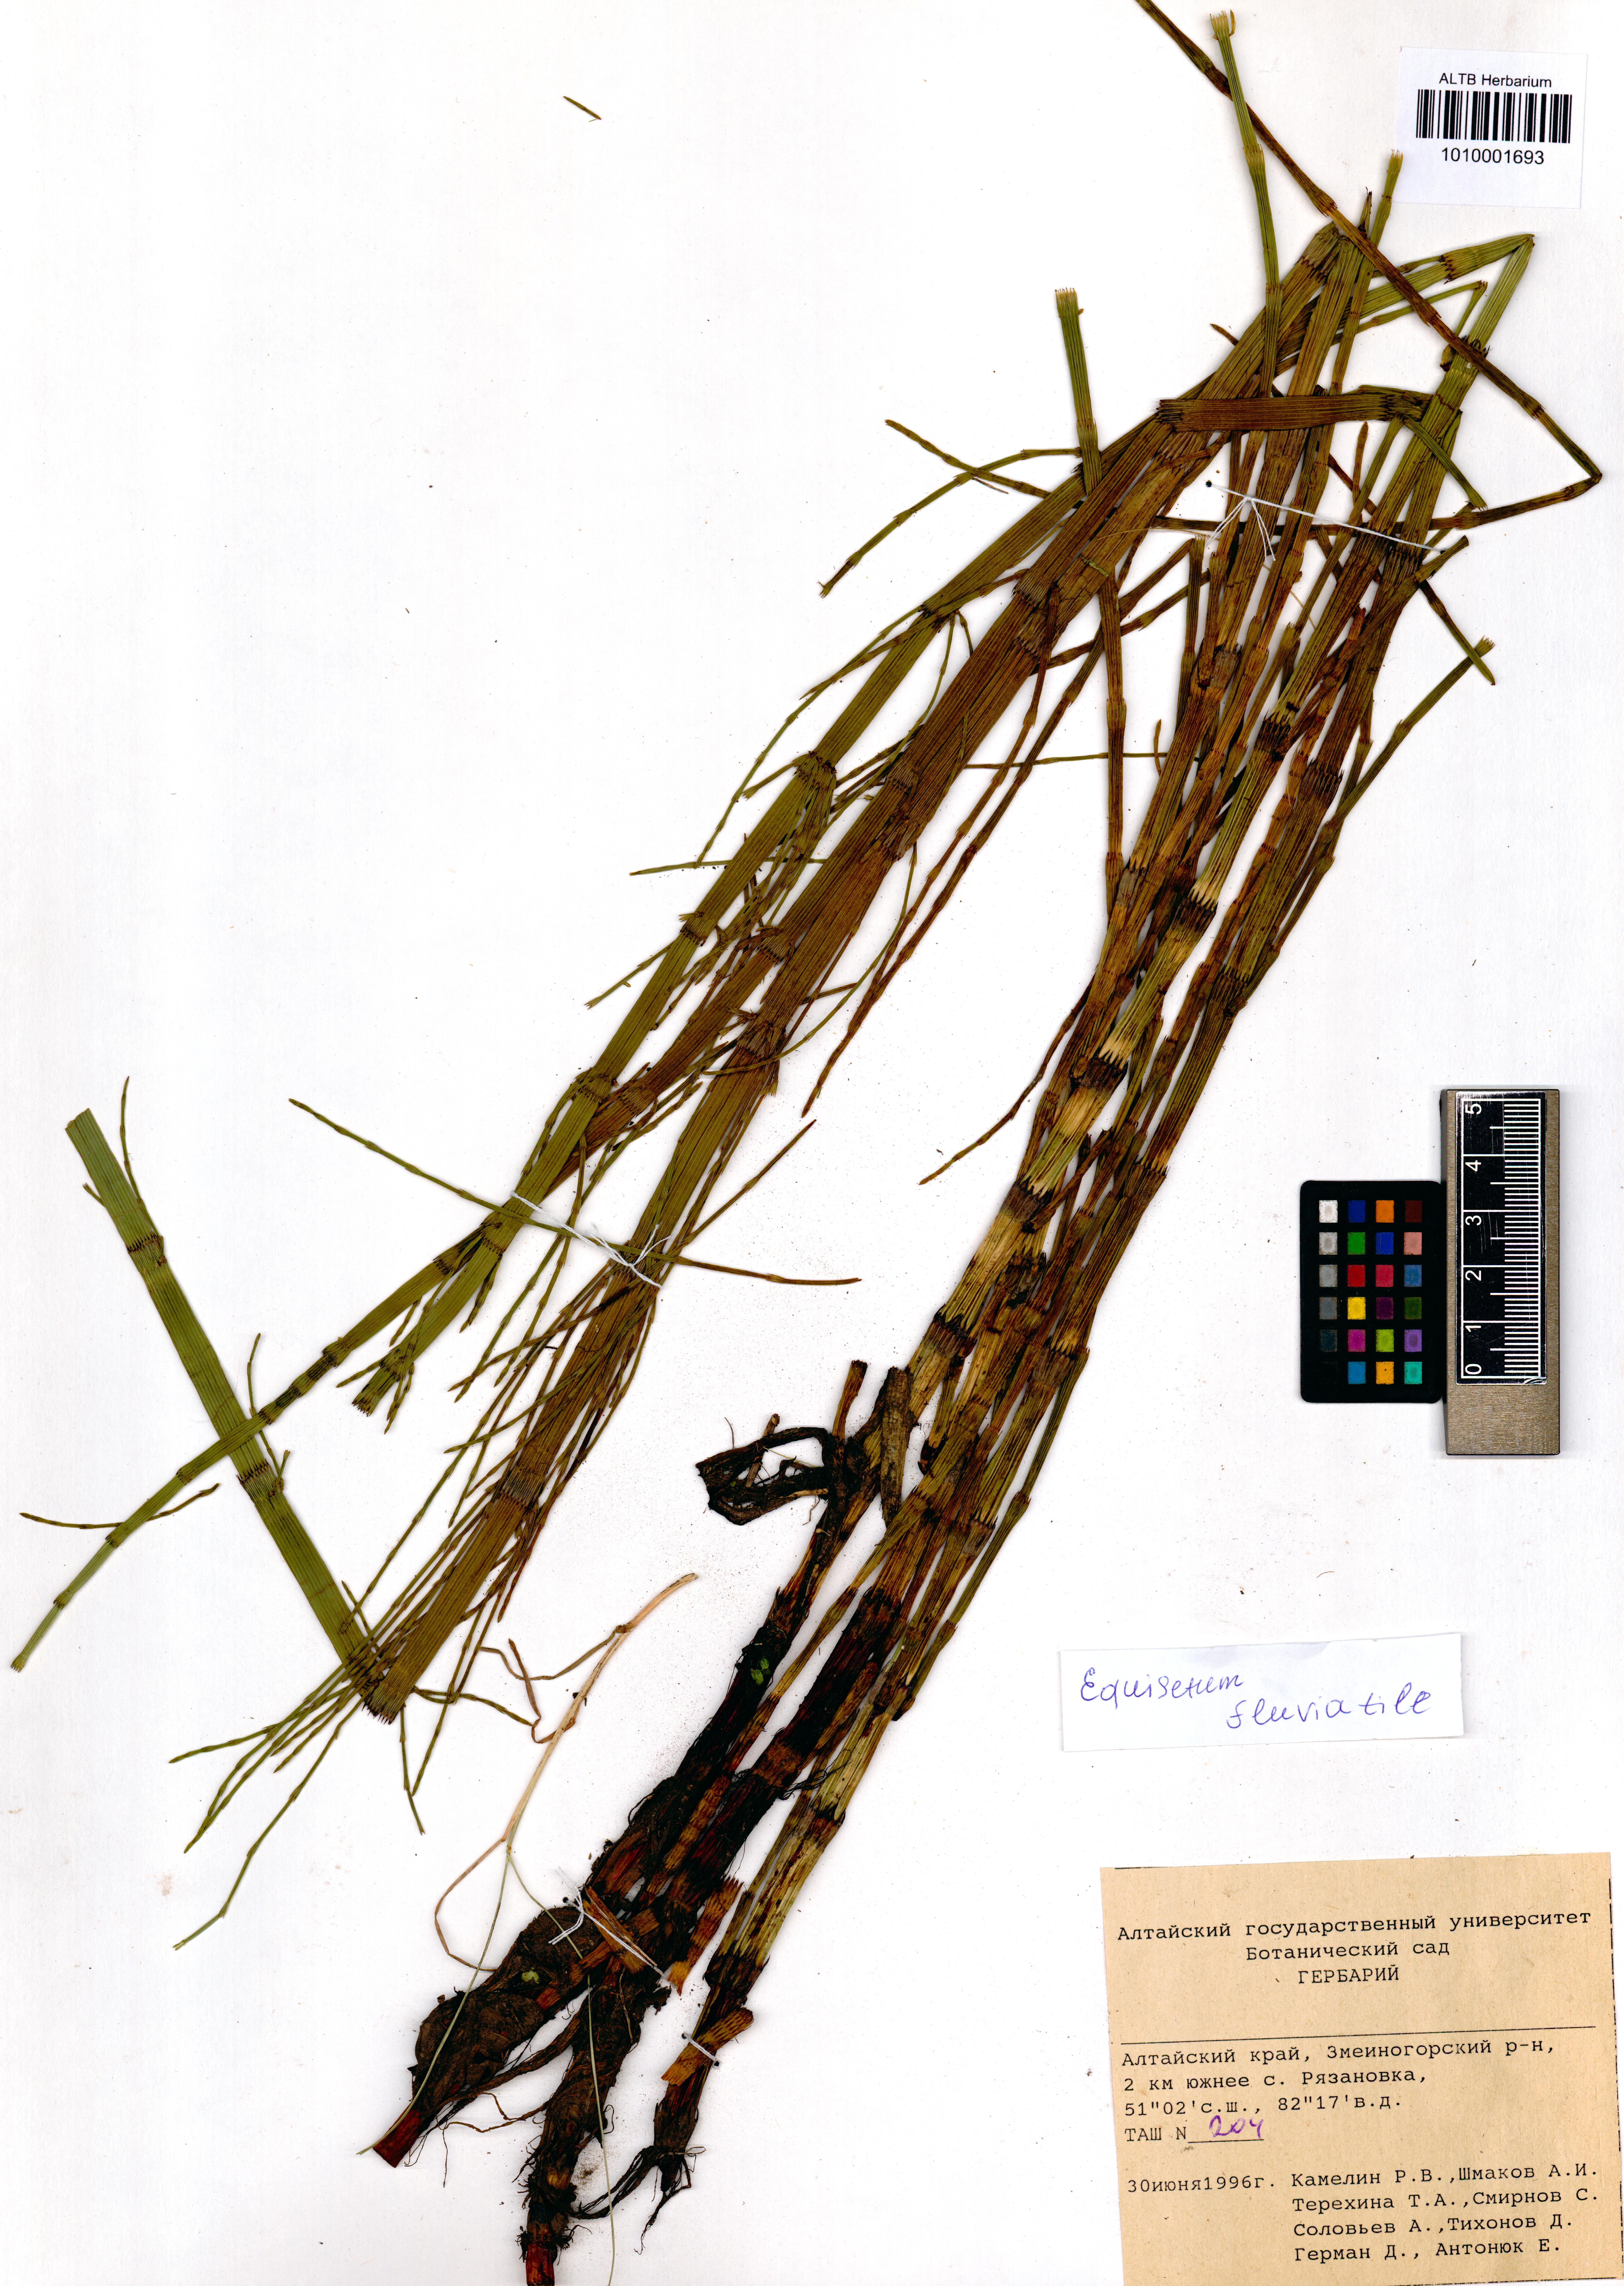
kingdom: Plantae
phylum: Tracheophyta
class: Polypodiopsida
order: Equisetales
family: Equisetaceae
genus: Equisetum
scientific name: Equisetum fluviatile
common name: Water horsetail
